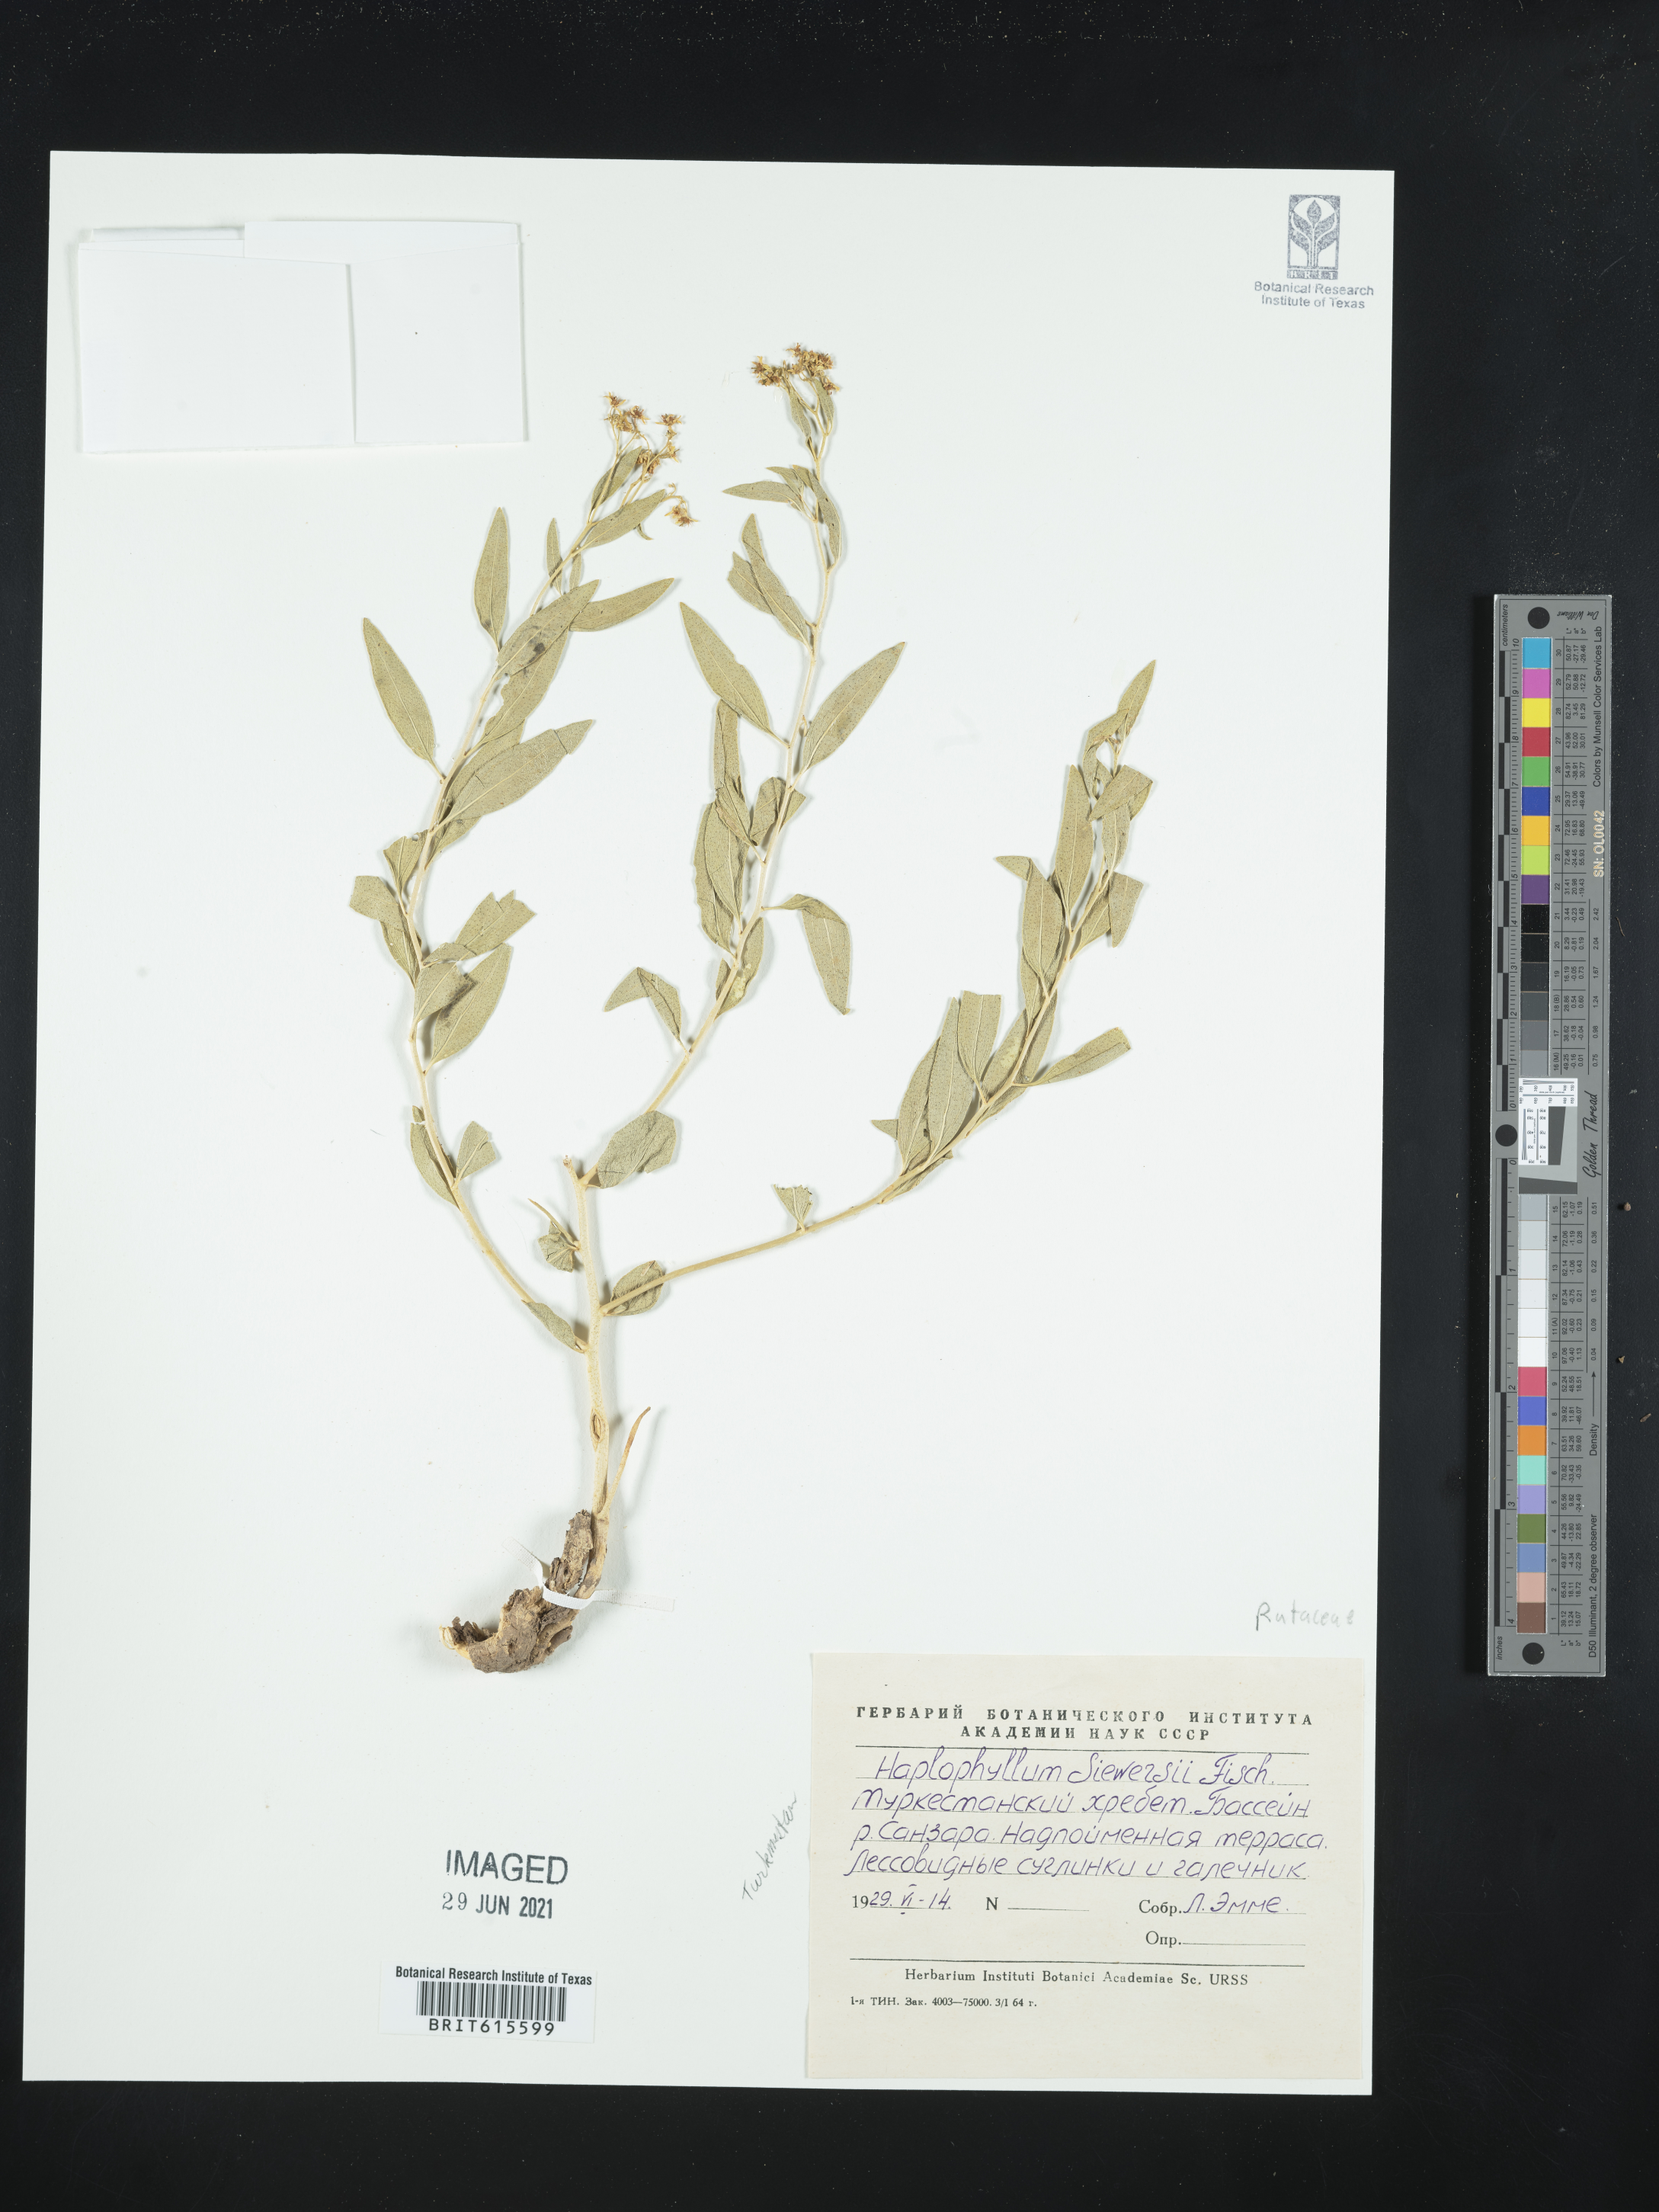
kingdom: Plantae
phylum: Tracheophyta
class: Magnoliopsida
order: Sapindales
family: Rutaceae
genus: Haplophyllum
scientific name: Haplophyllum acutifolium
